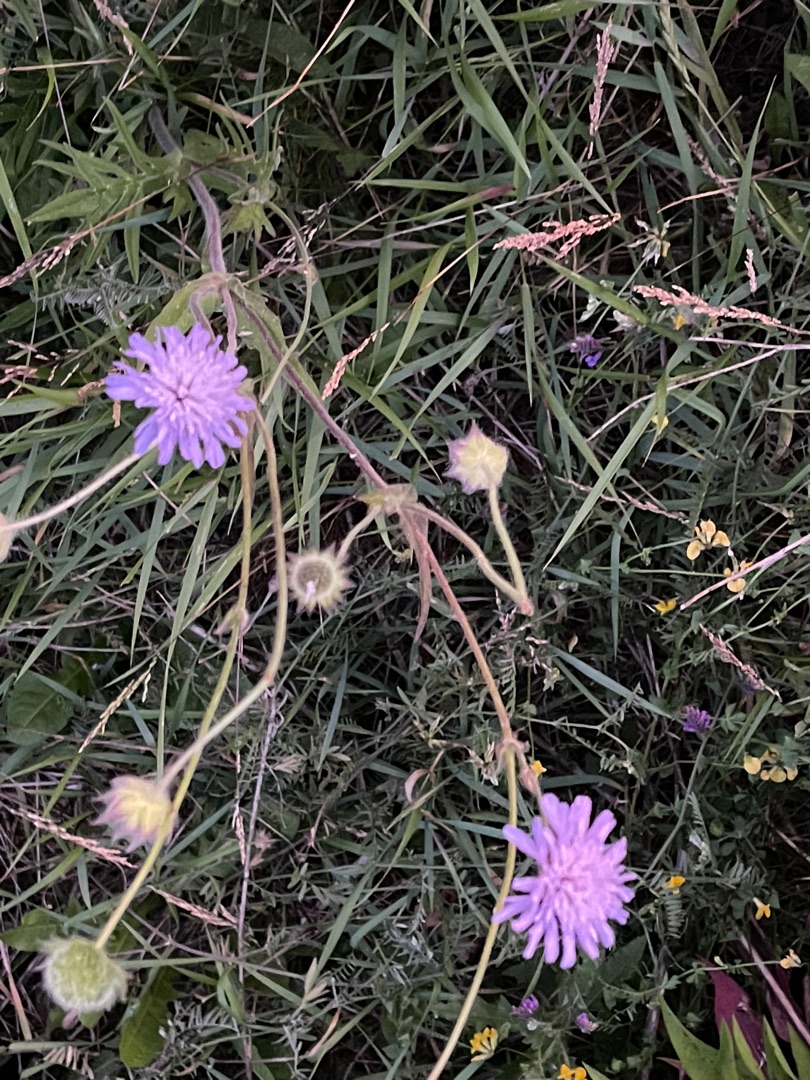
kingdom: Plantae
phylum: Tracheophyta
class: Magnoliopsida
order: Dipsacales
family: Caprifoliaceae
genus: Knautia
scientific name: Knautia arvensis
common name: Blåhat
